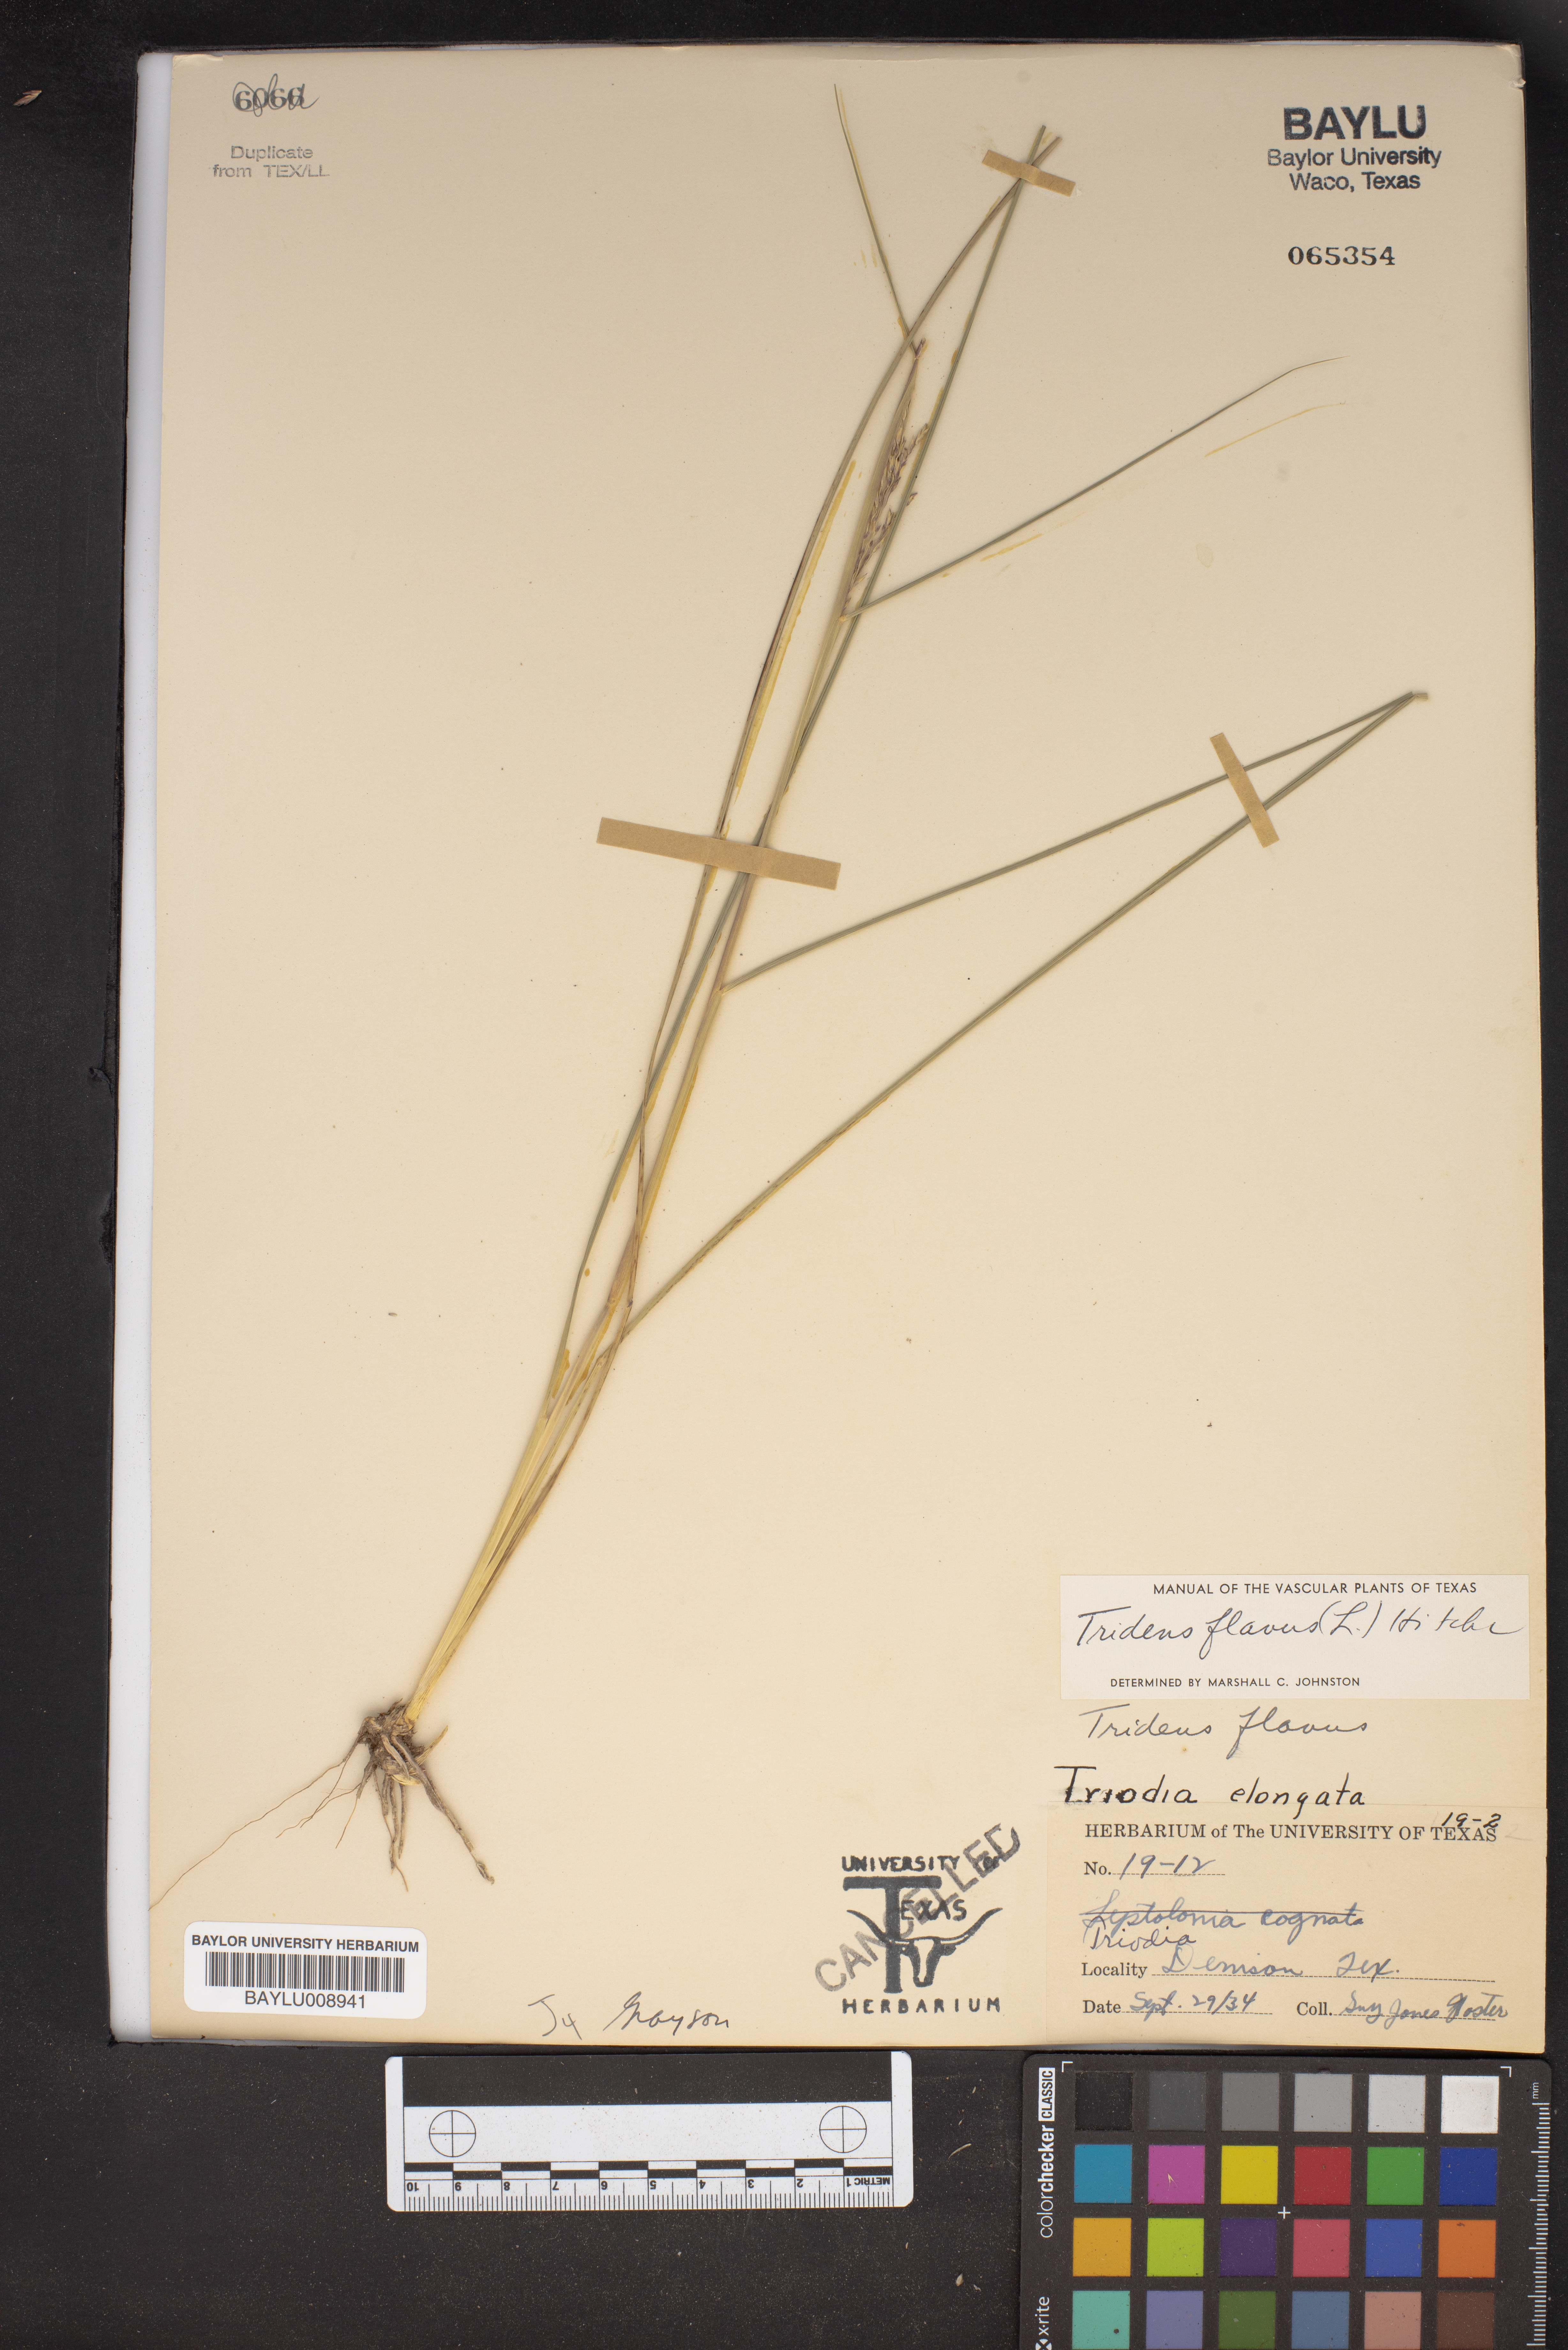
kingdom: Plantae
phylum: Tracheophyta
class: Liliopsida
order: Poales
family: Poaceae
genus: Tridens
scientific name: Tridens flavus
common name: Purpletop
